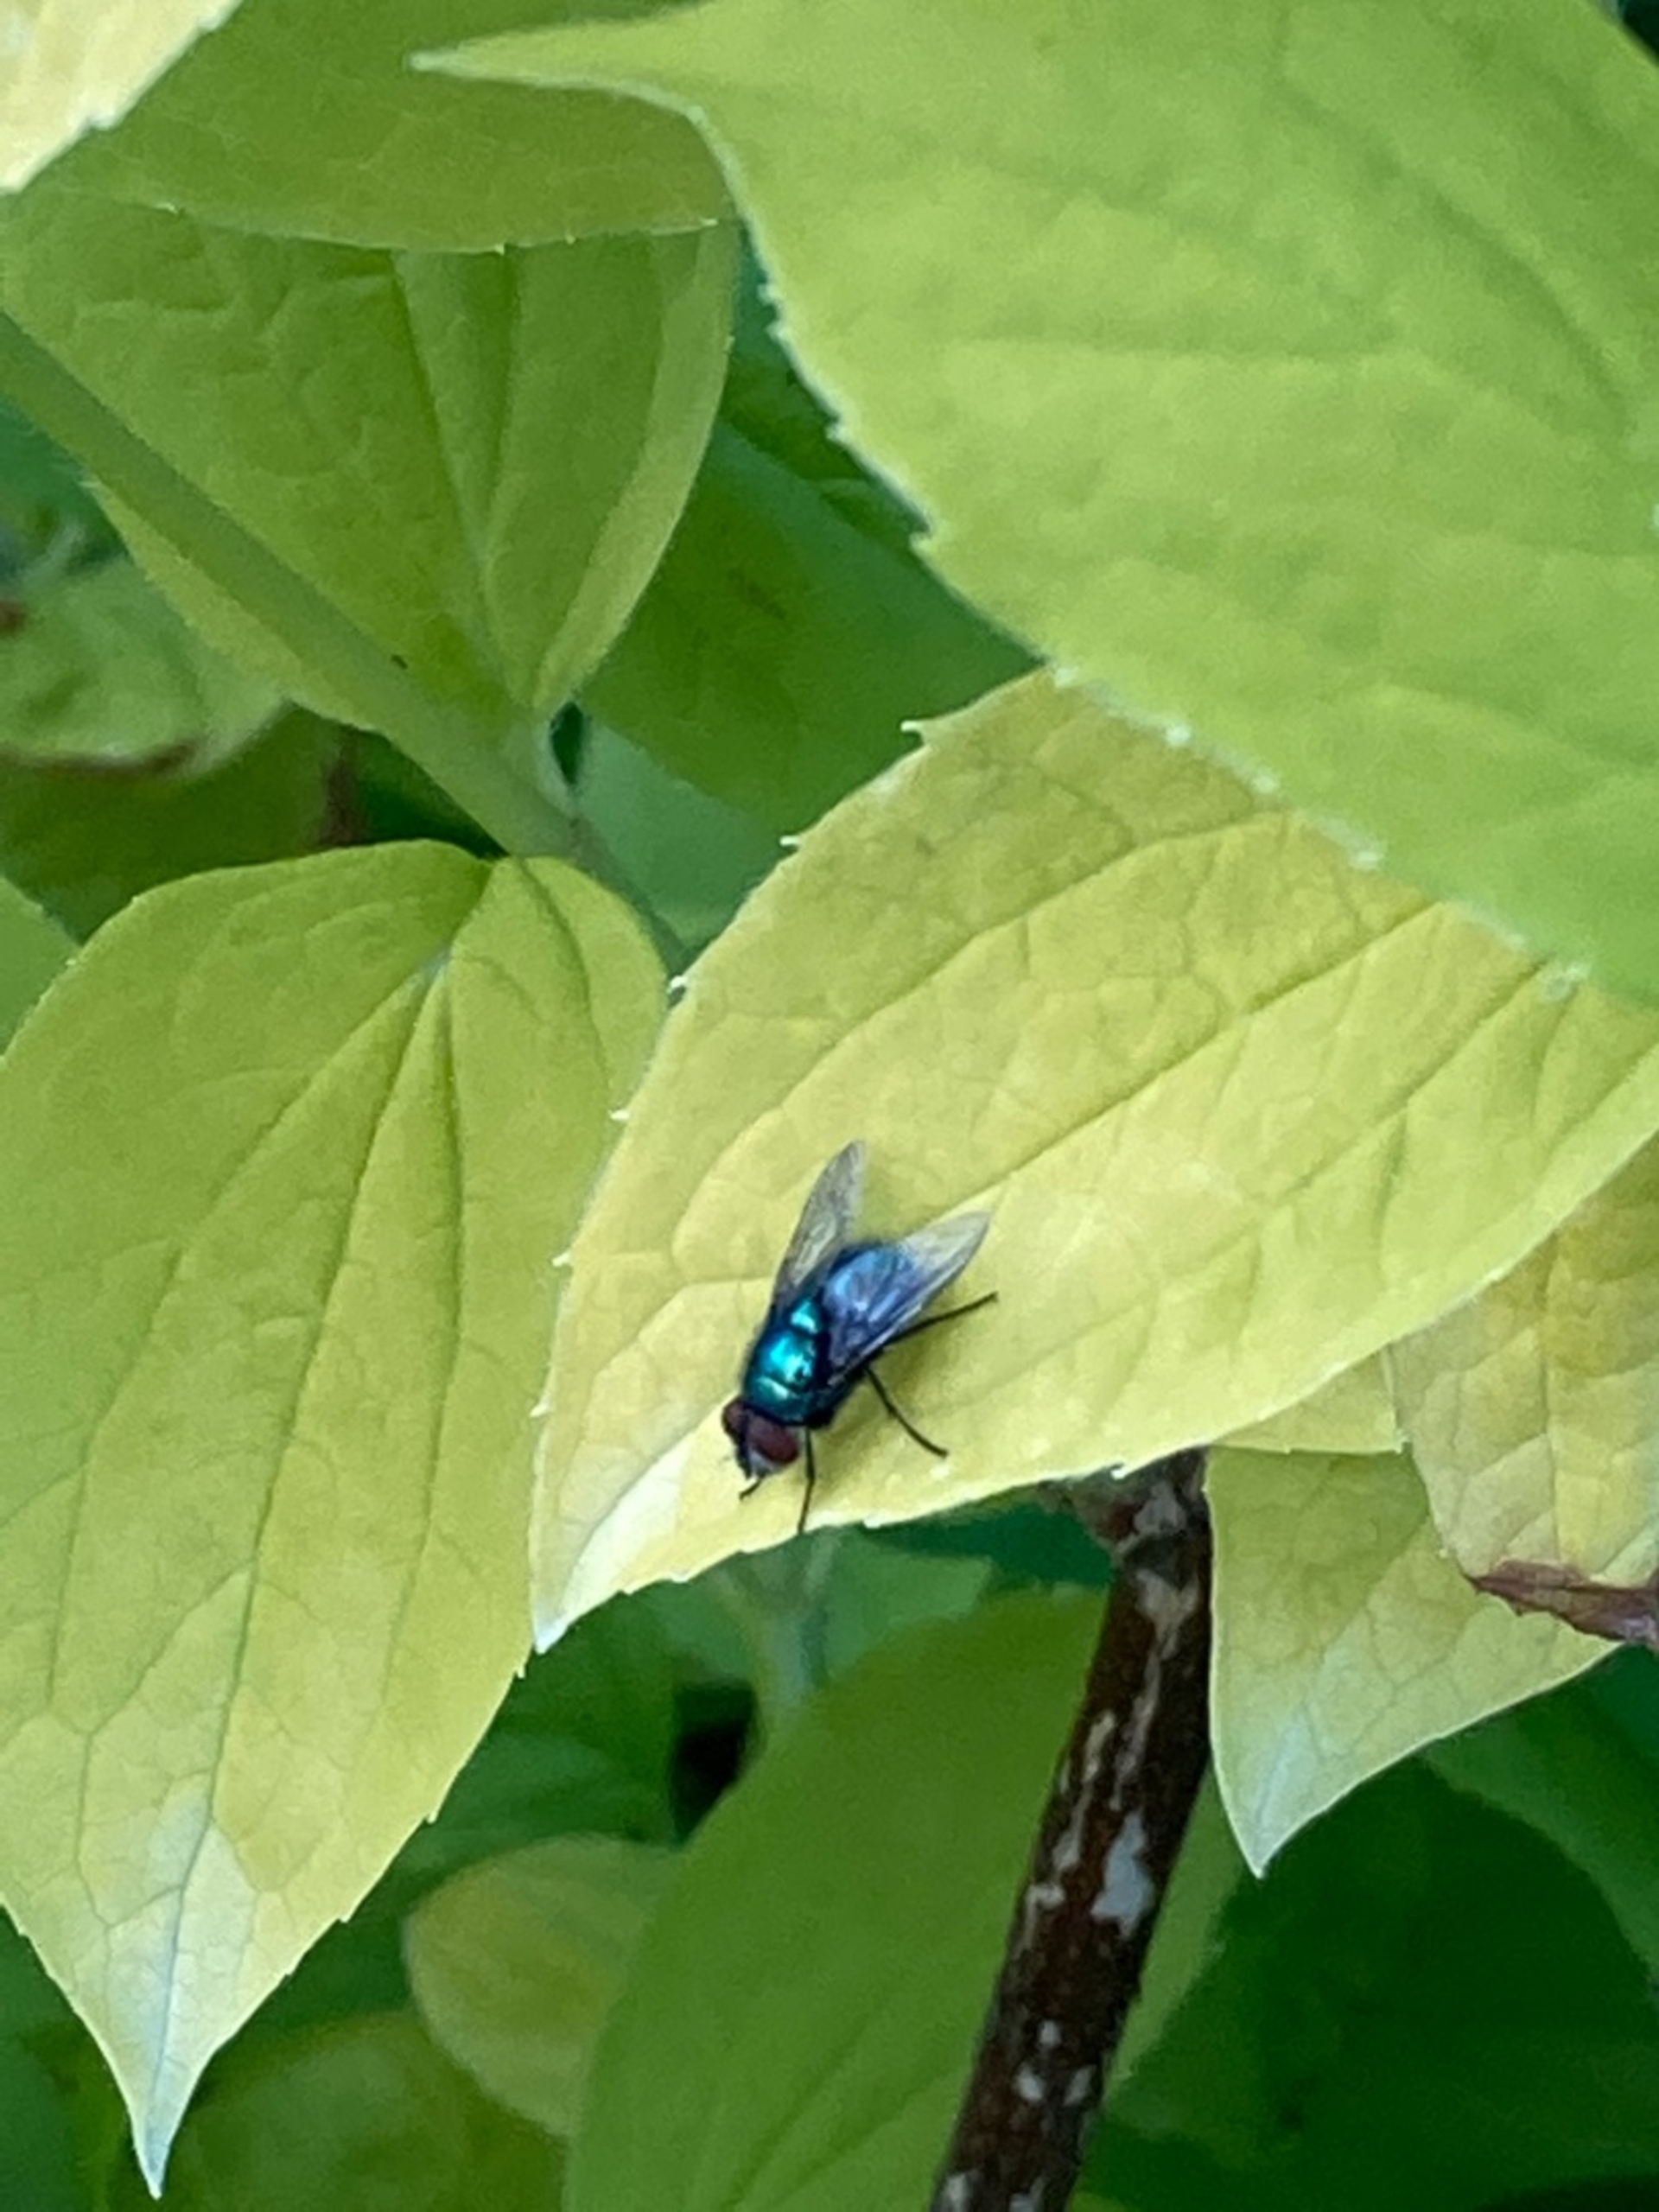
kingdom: Animalia
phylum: Arthropoda
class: Insecta
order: Diptera
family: Calliphoridae
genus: Lucilia
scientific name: Lucilia
